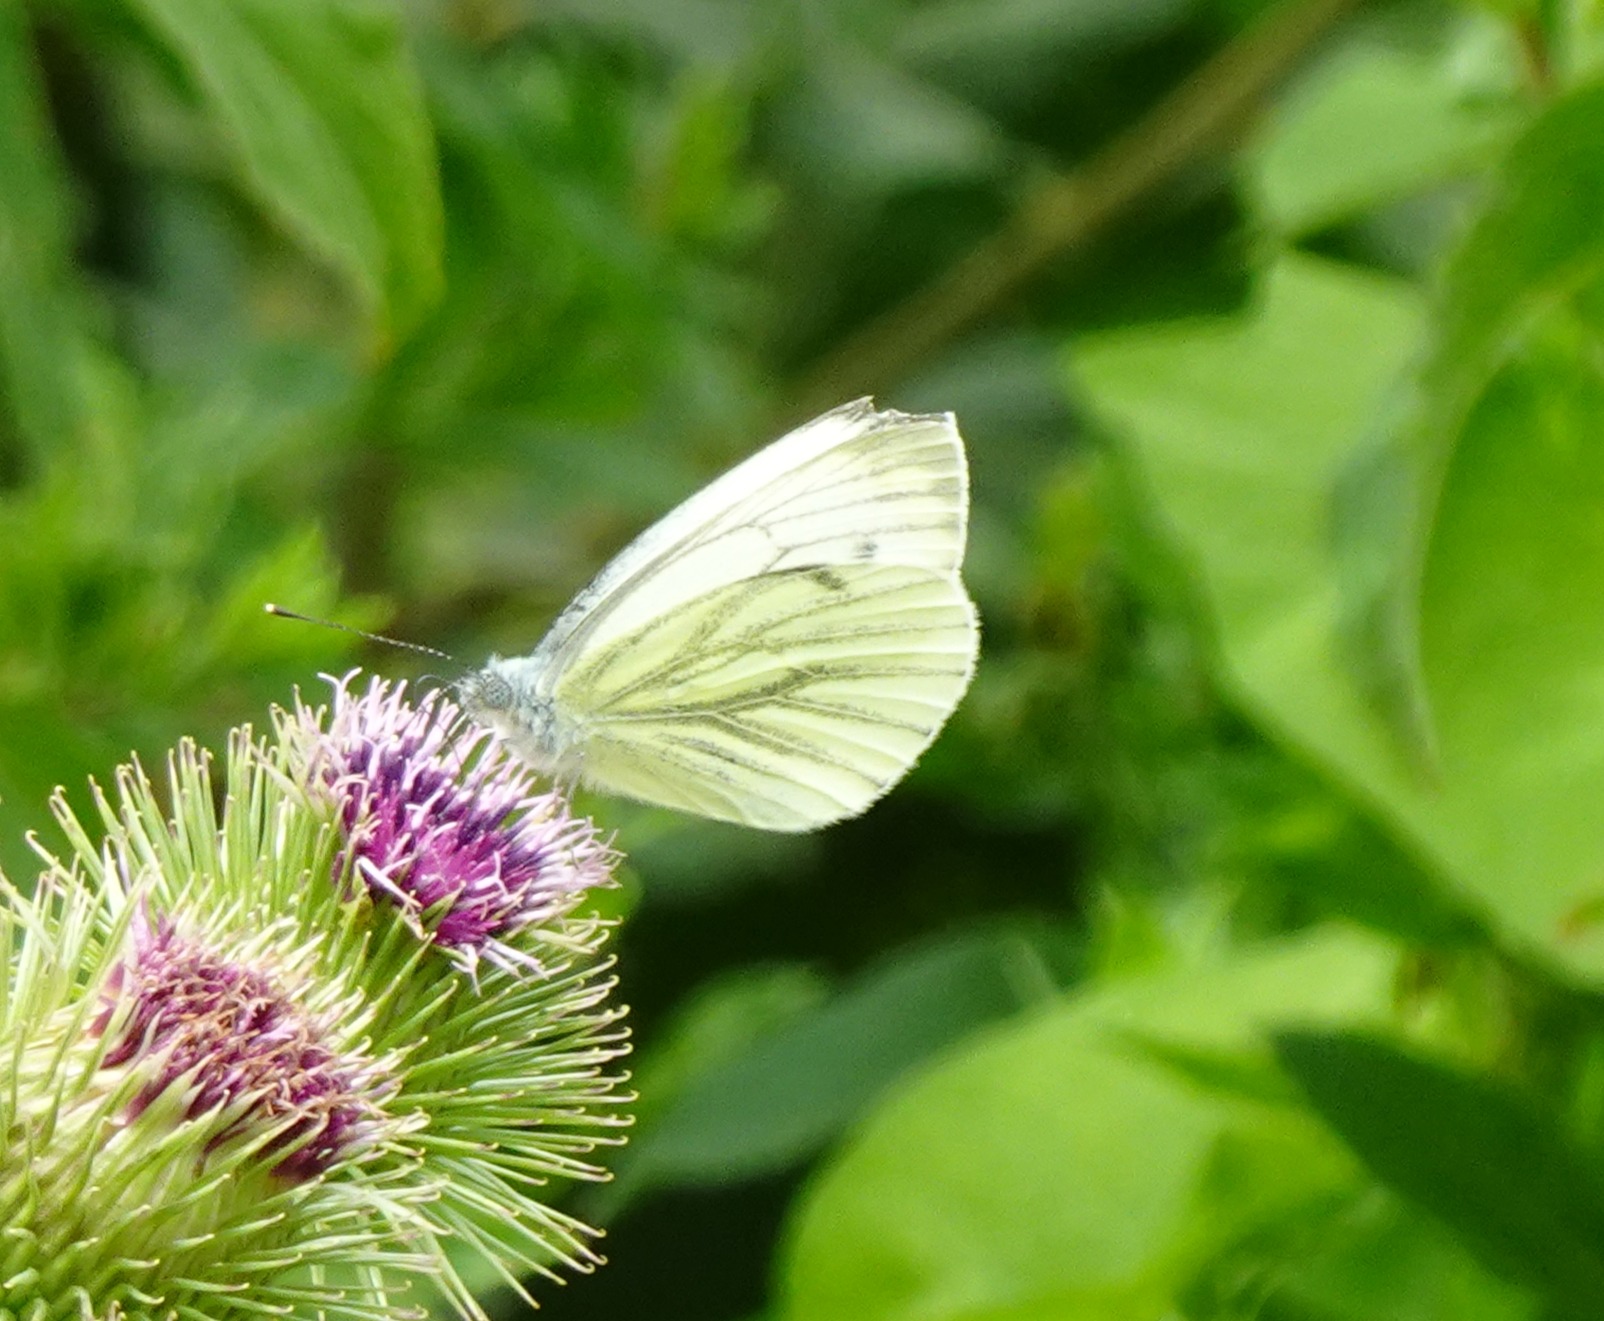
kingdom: Animalia
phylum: Arthropoda
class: Insecta
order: Lepidoptera
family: Pieridae
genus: Pieris
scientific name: Pieris napi
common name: Grønåret kålsommerfugl
